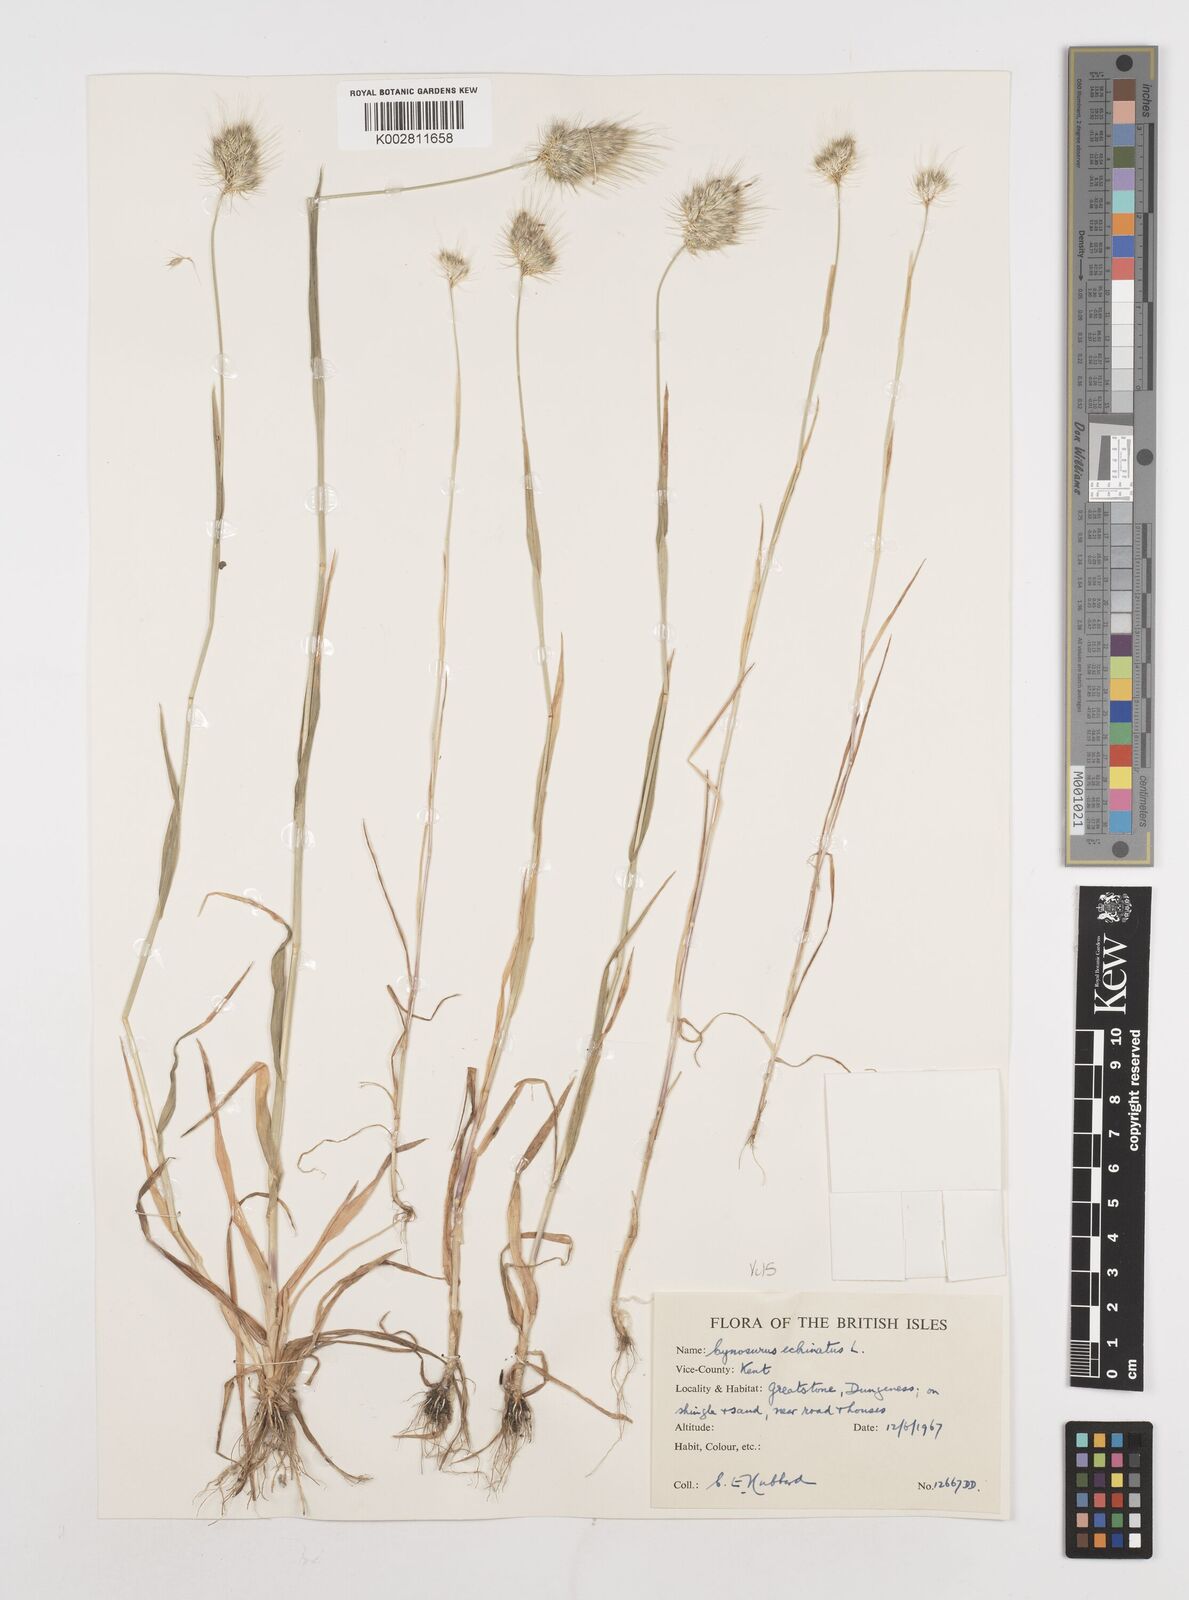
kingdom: Plantae
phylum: Tracheophyta
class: Liliopsida
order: Poales
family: Poaceae
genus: Cynosurus
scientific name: Cynosurus echinatus
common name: Rough dog's-tail
